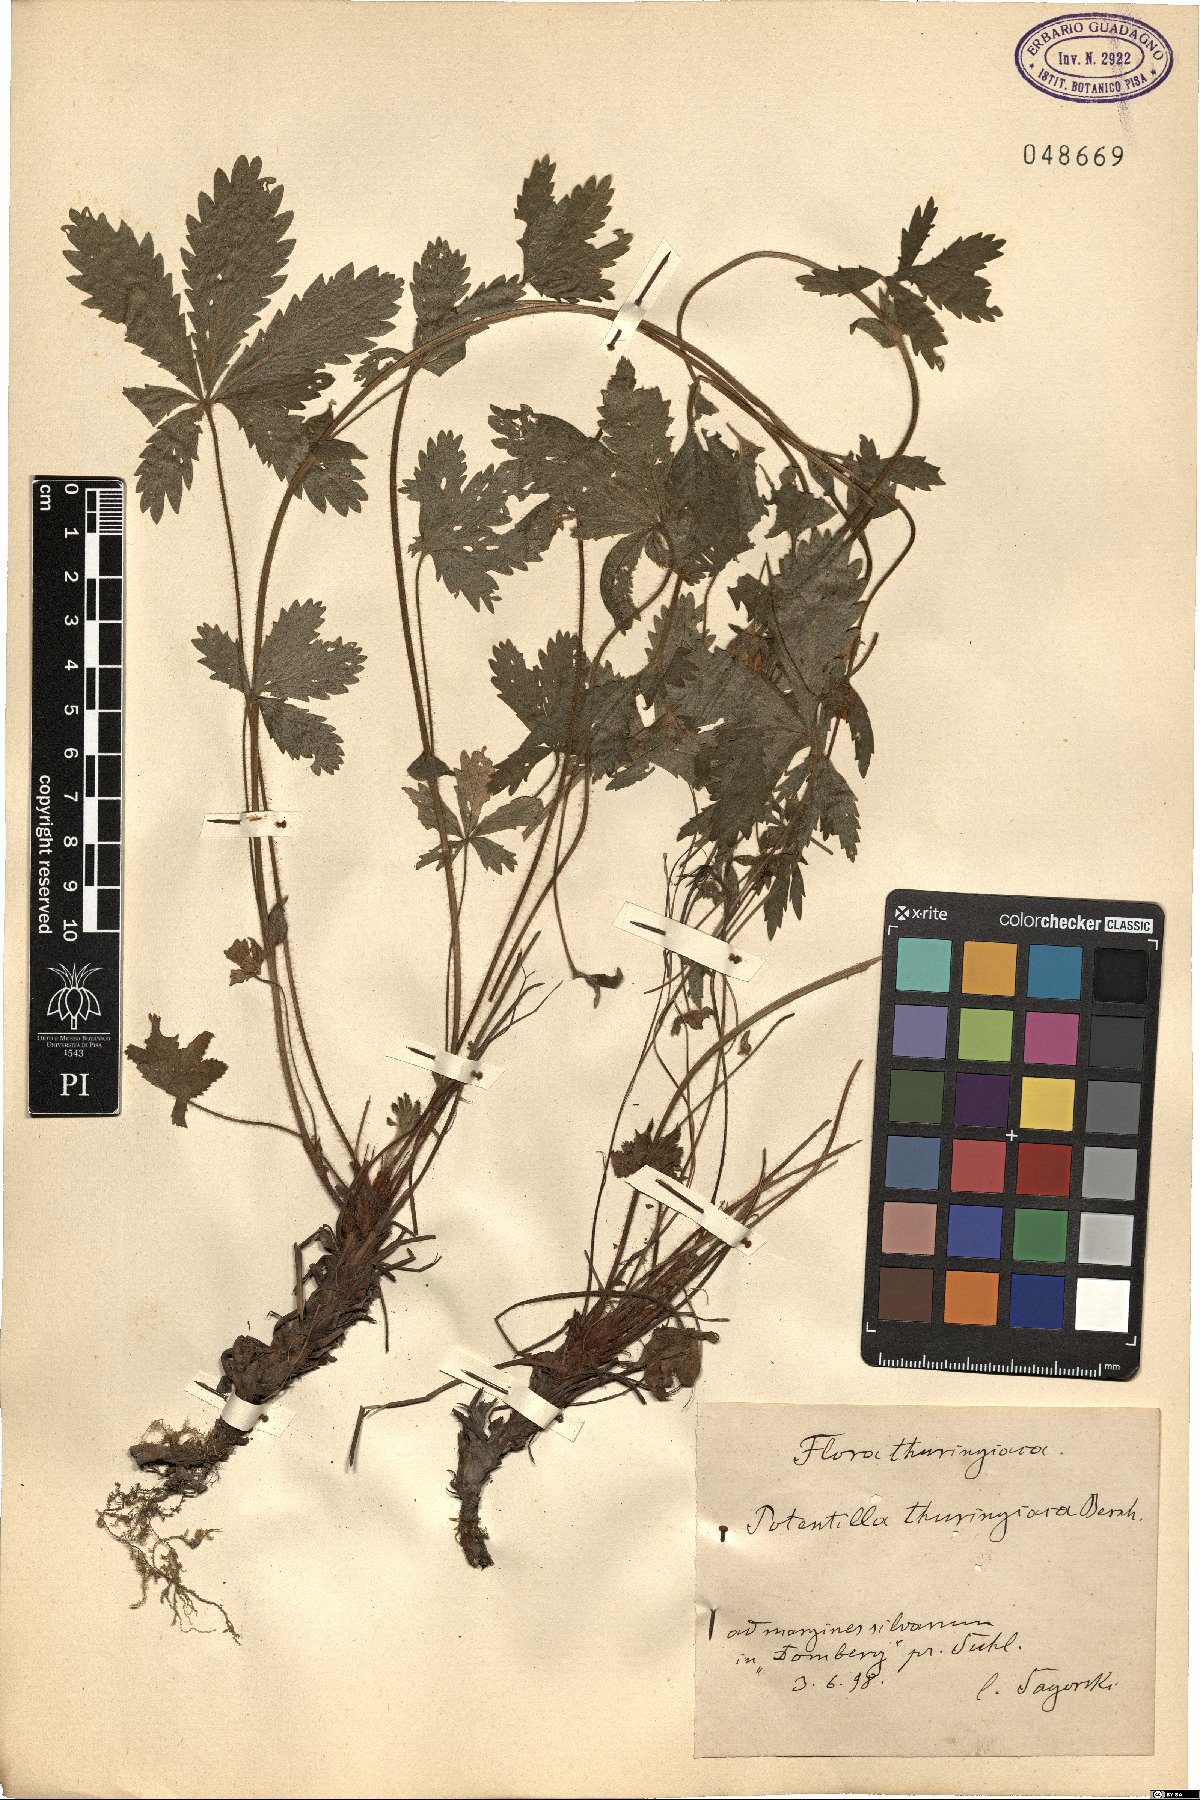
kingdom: Plantae
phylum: Tracheophyta
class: Magnoliopsida
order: Rosales
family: Rosaceae
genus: Potentilla
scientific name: Potentilla thuringiaca
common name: European cinquefoil
